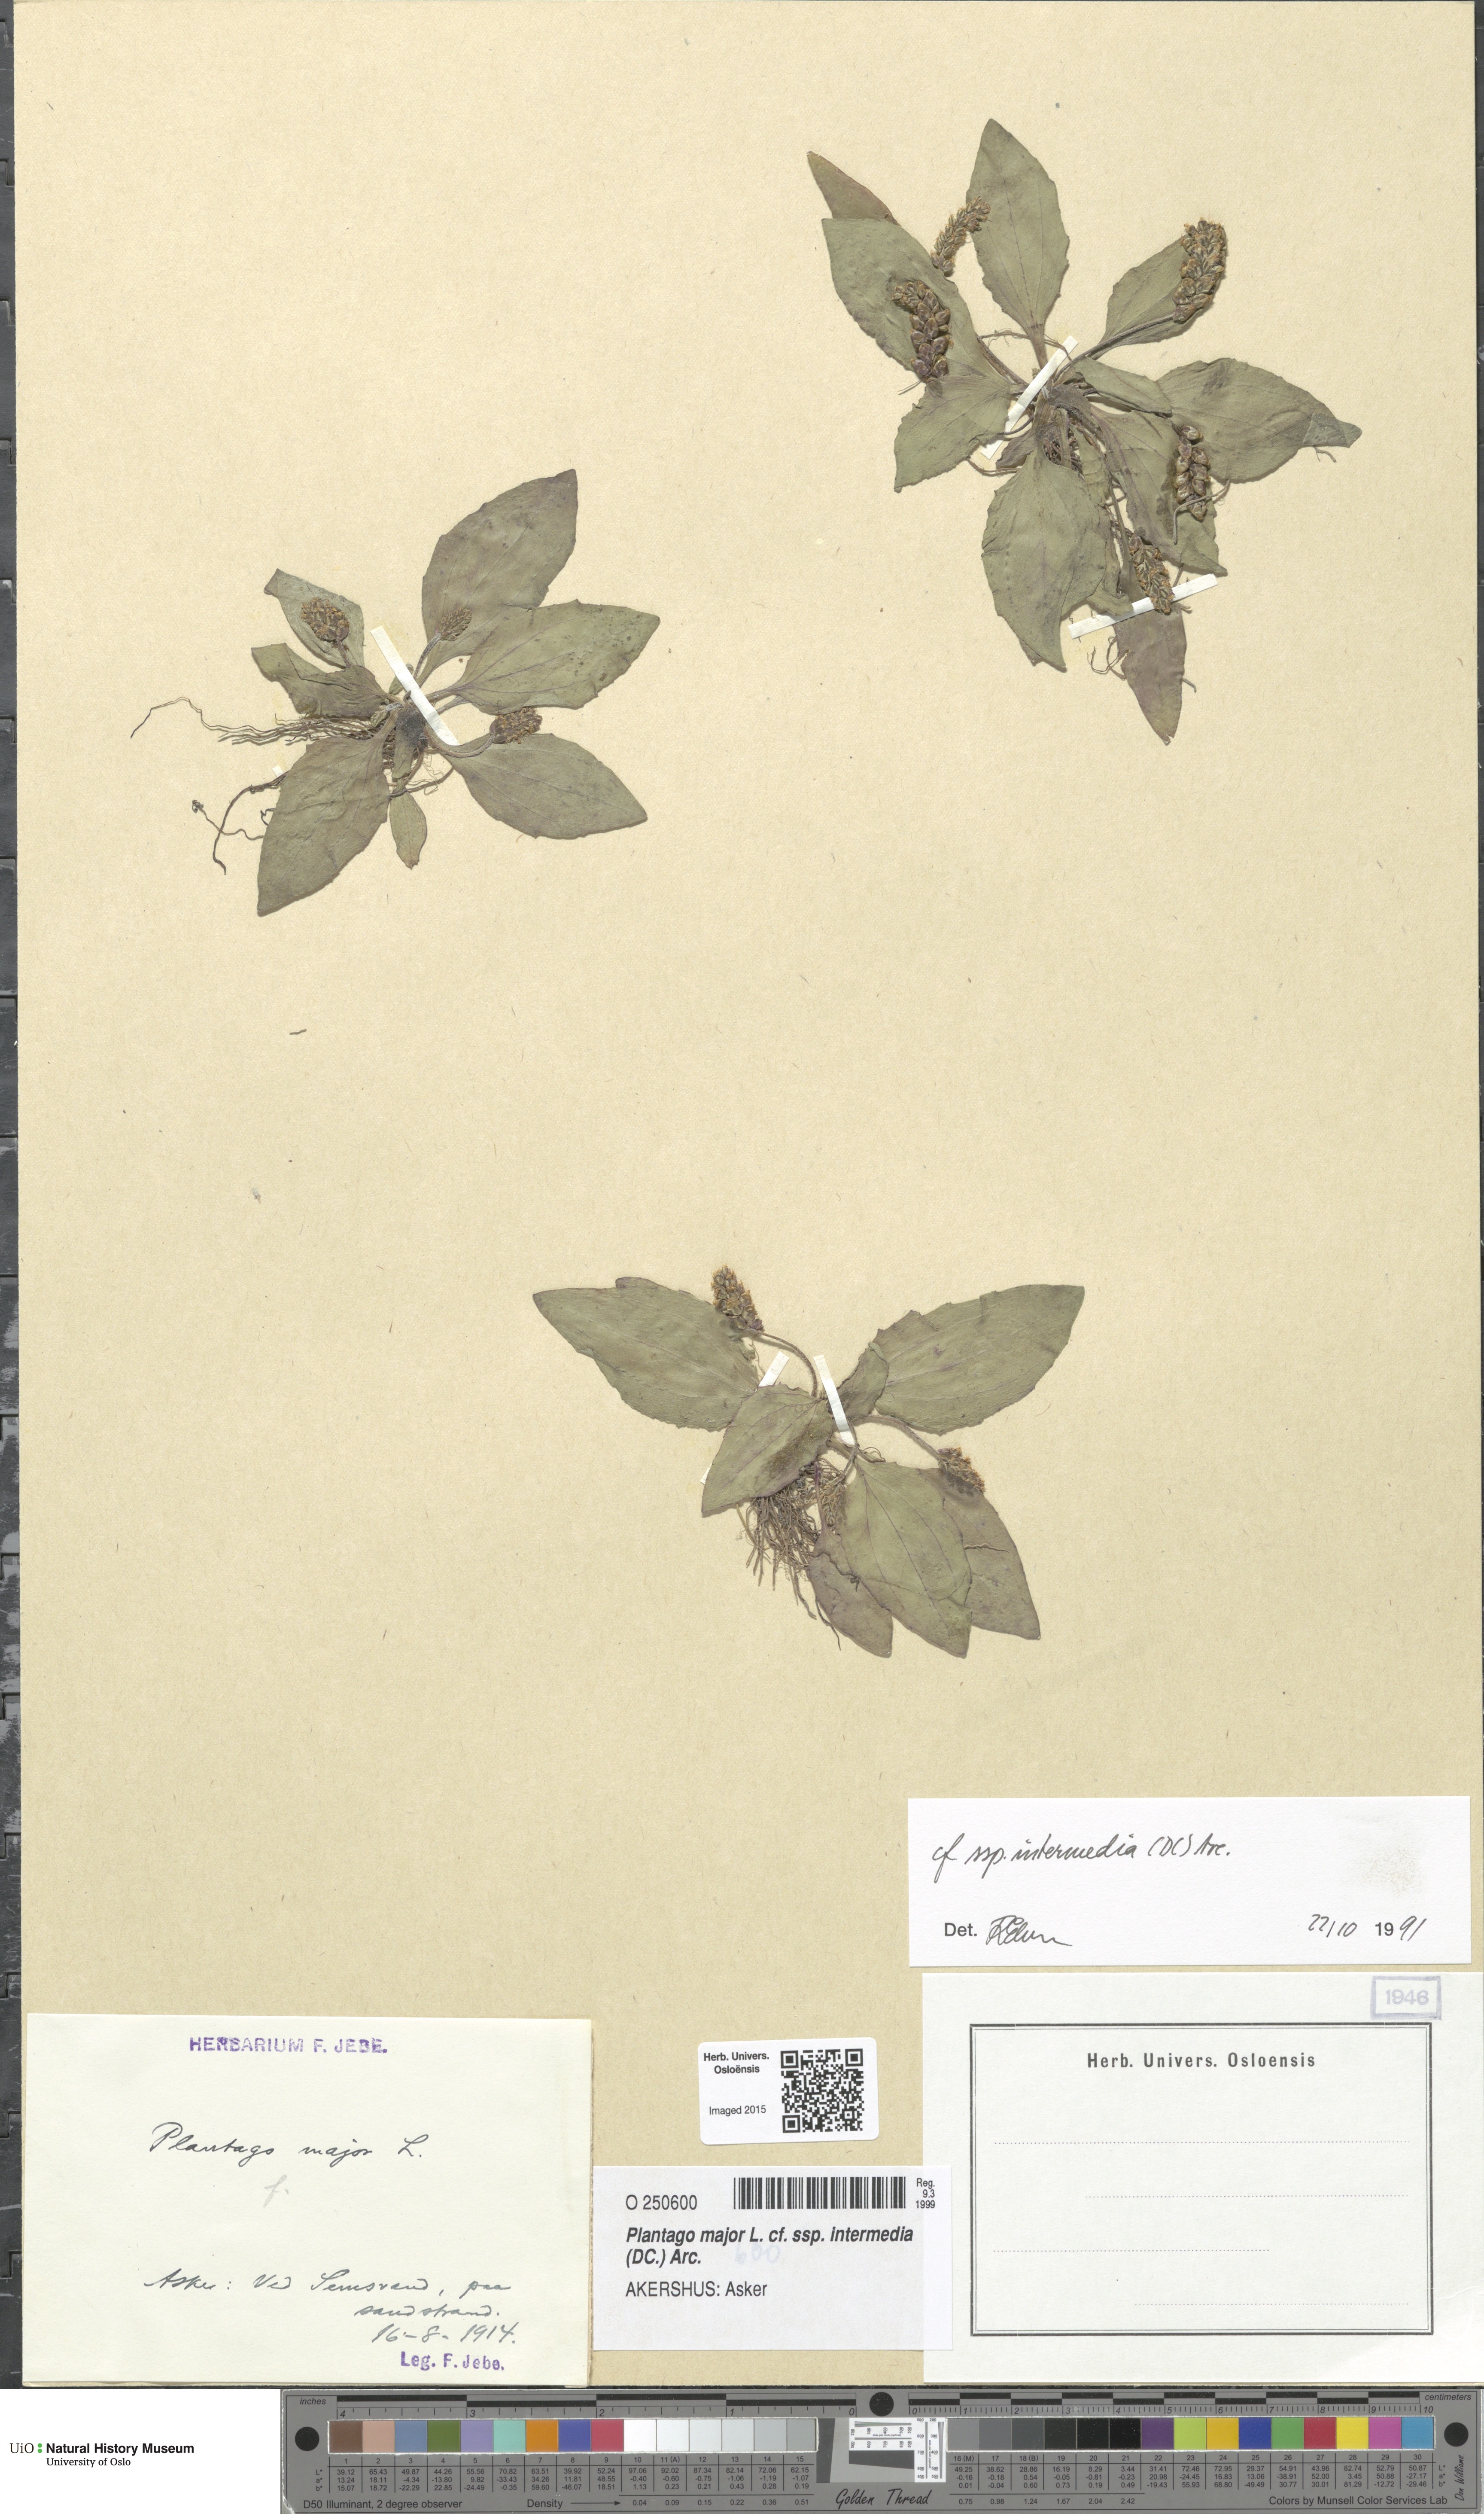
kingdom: Plantae
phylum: Tracheophyta
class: Magnoliopsida
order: Lamiales
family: Plantaginaceae
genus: Plantago
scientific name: Plantago uliginosa
